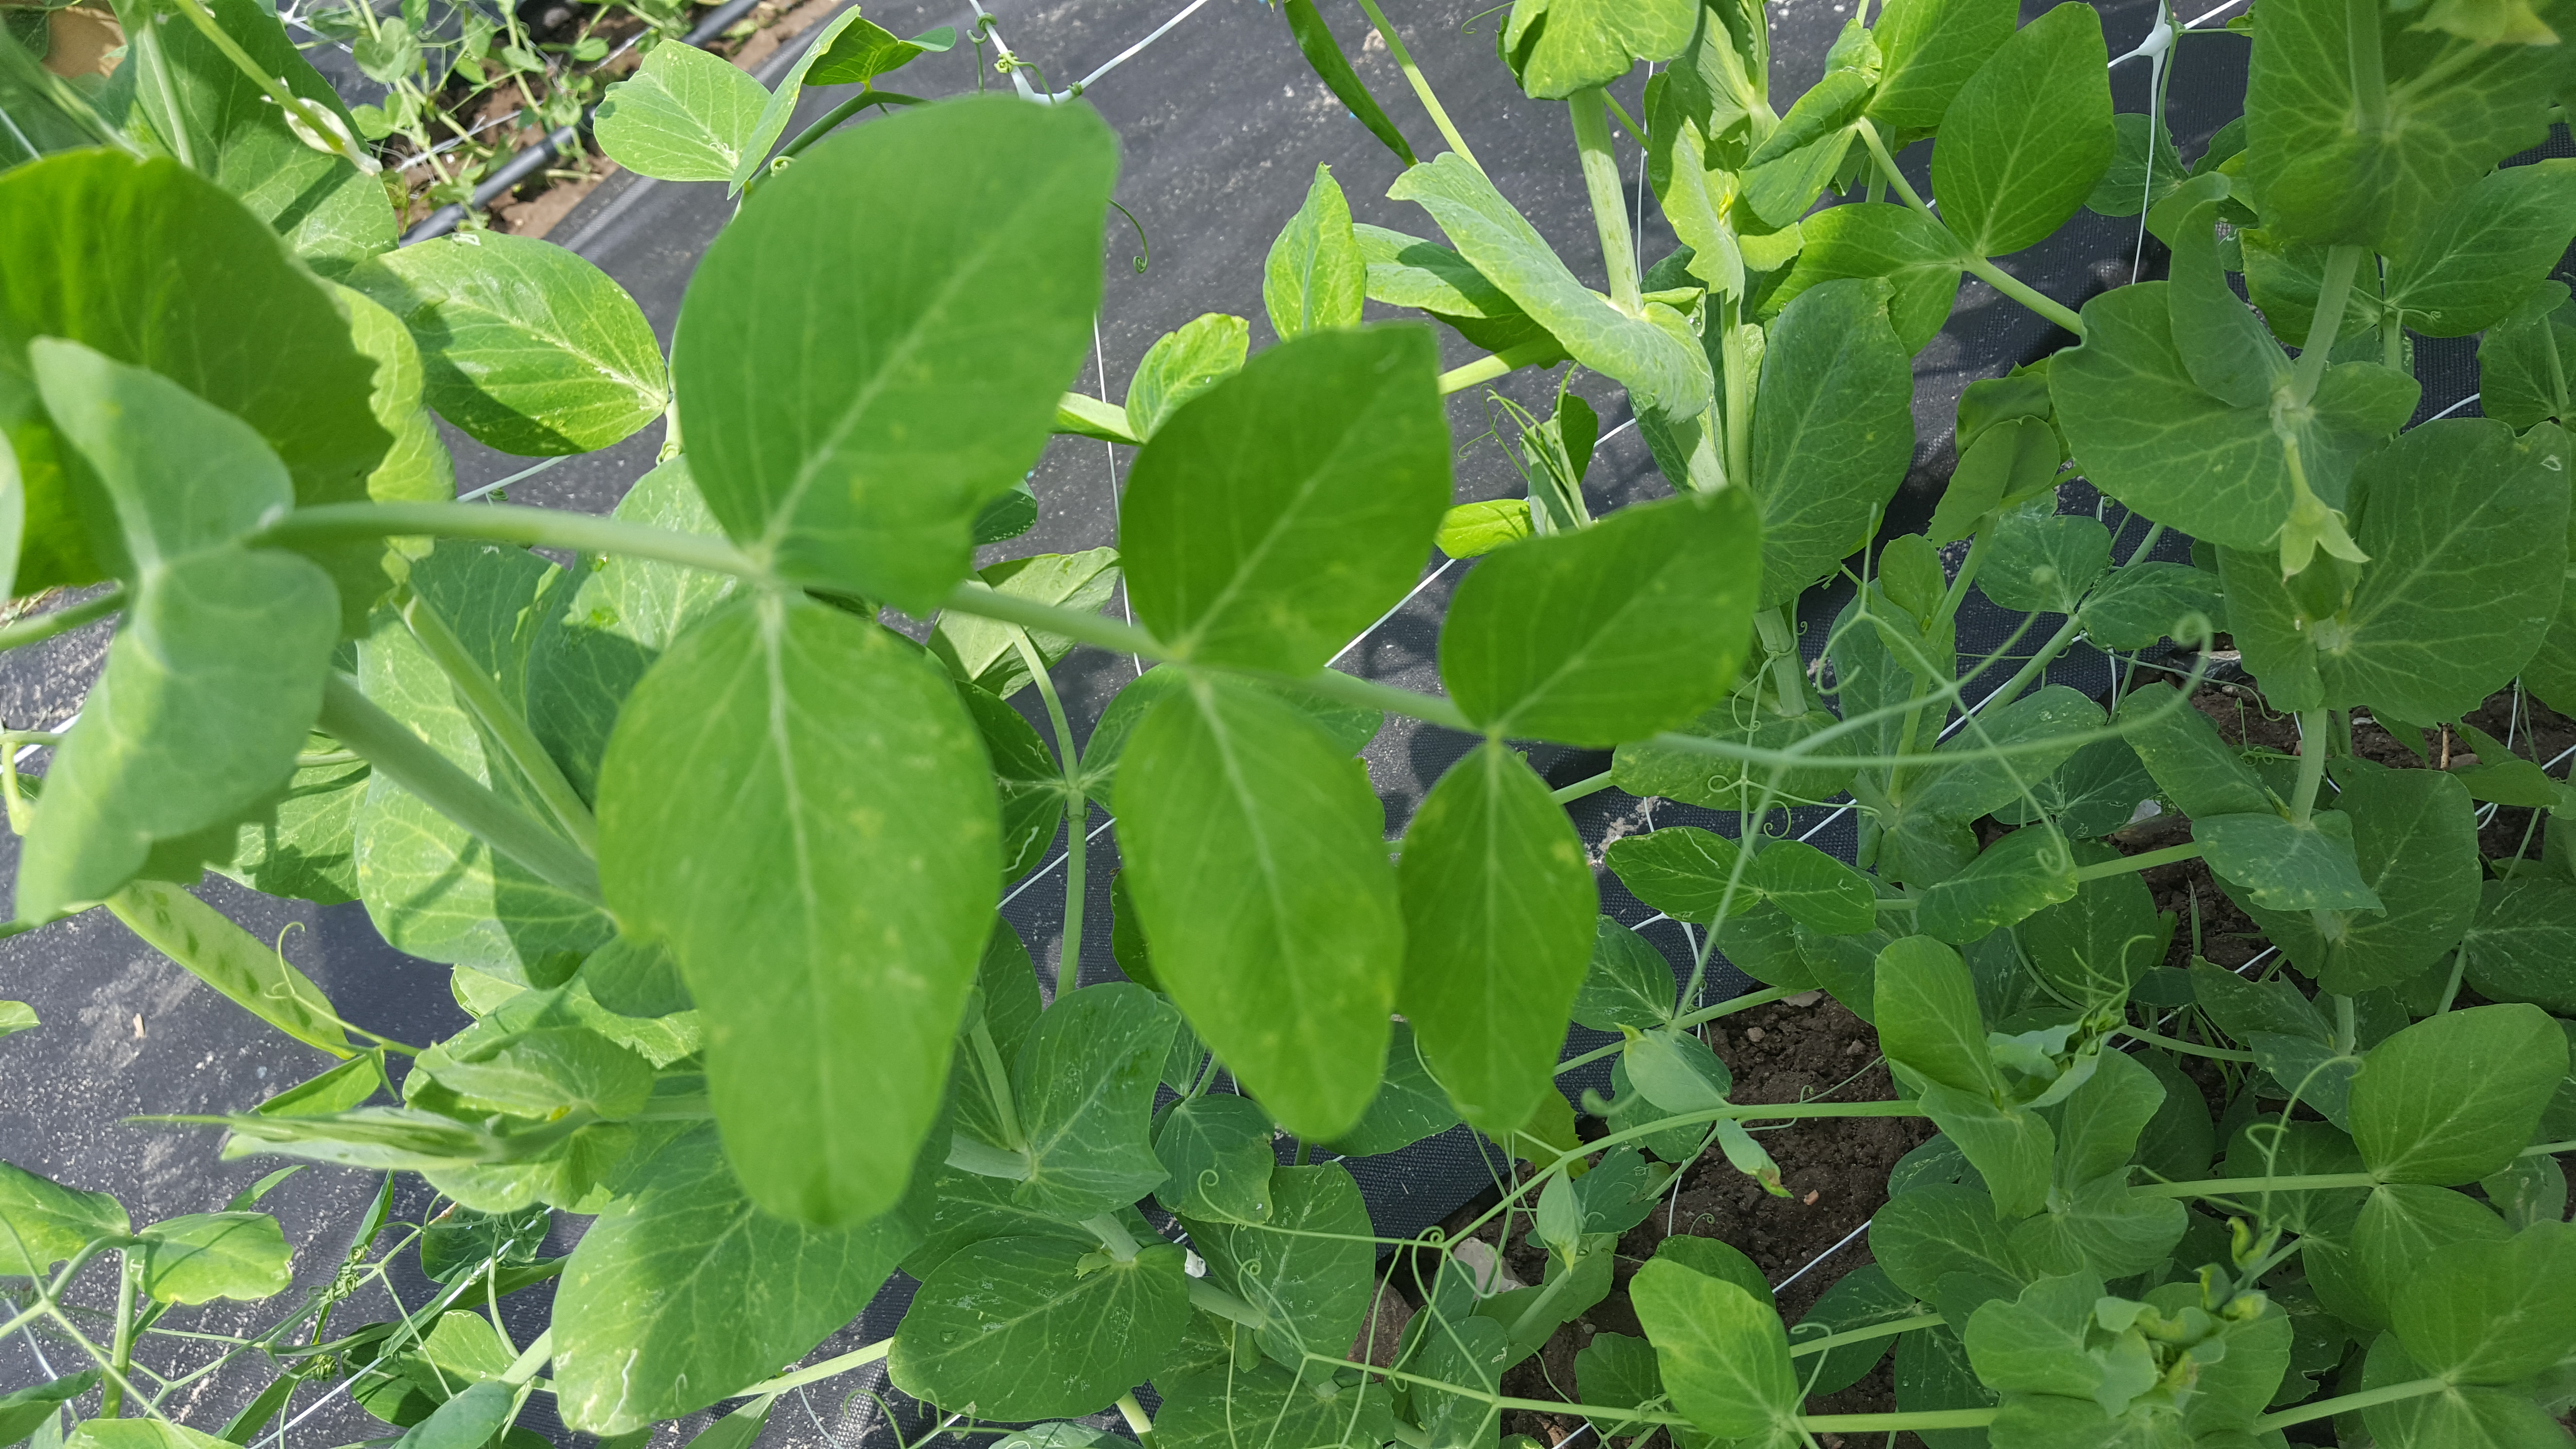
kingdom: Plantae
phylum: Tracheophyta
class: Magnoliopsida
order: Fabales
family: Fabaceae
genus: Lathyrus
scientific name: Lathyrus oleraceus
